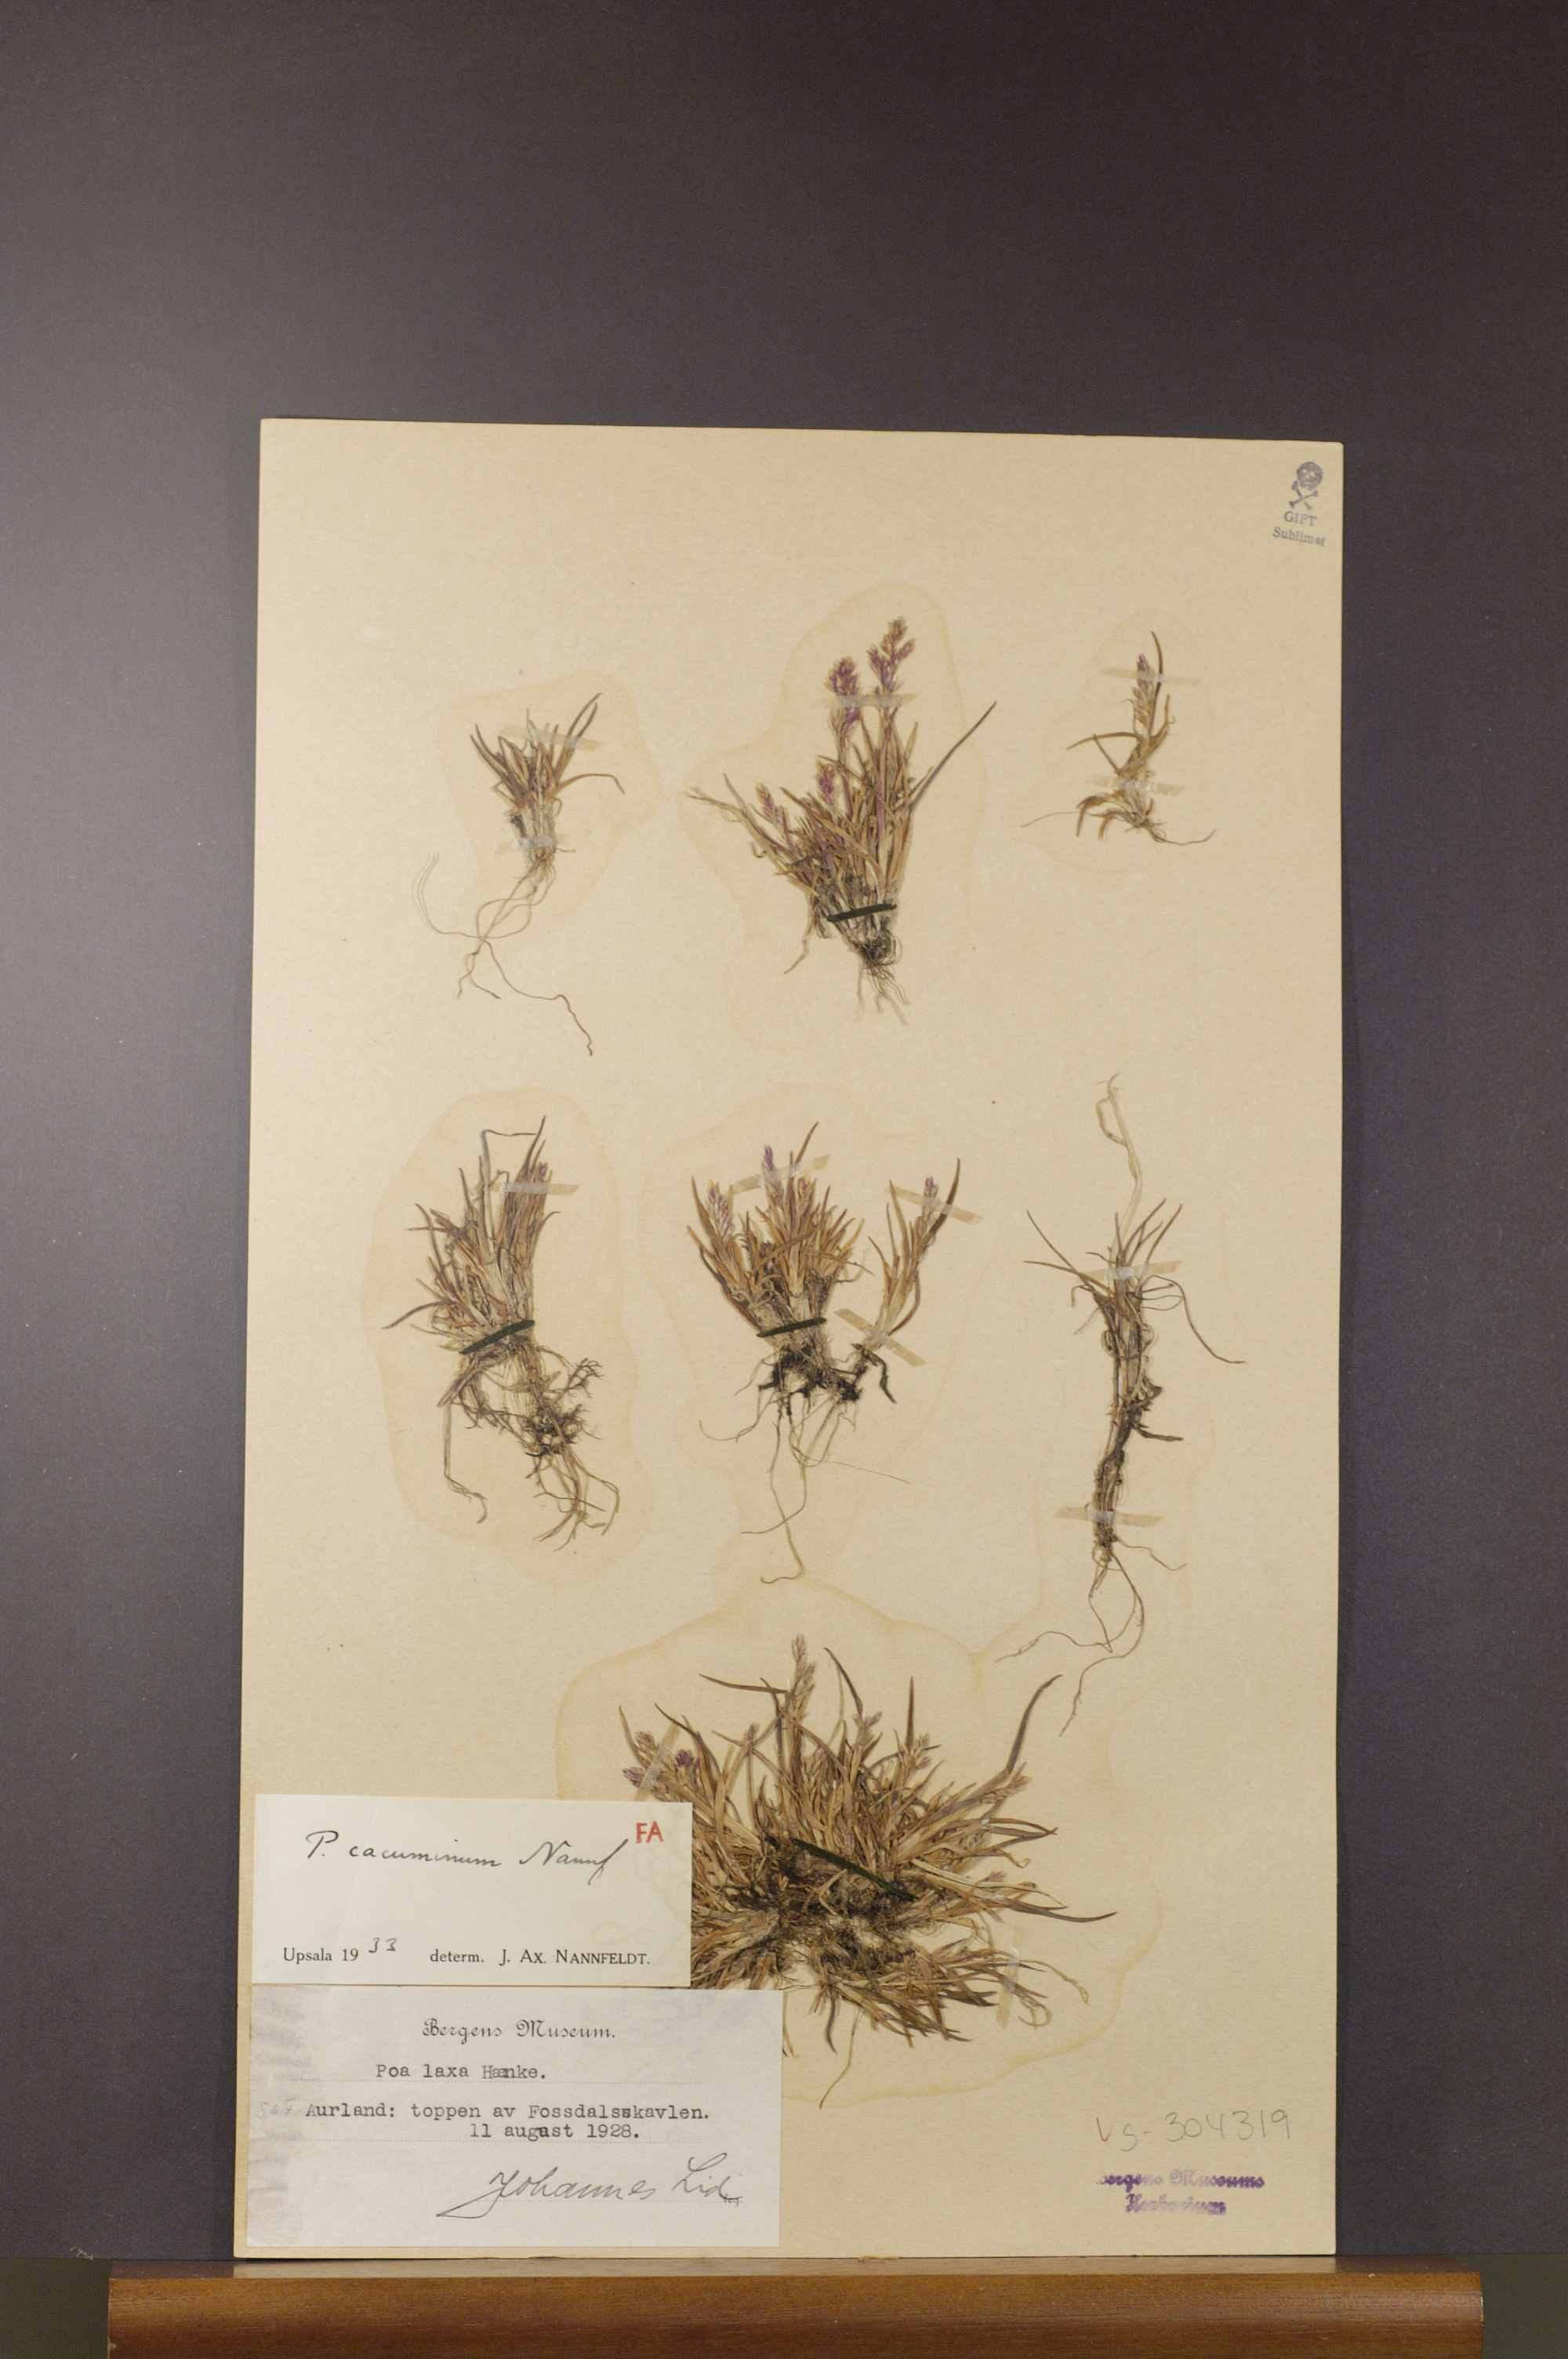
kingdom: Plantae
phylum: Tracheophyta
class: Liliopsida
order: Poales
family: Poaceae
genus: Poa
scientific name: Poa flexuosa
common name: Wavy meadow-grass
